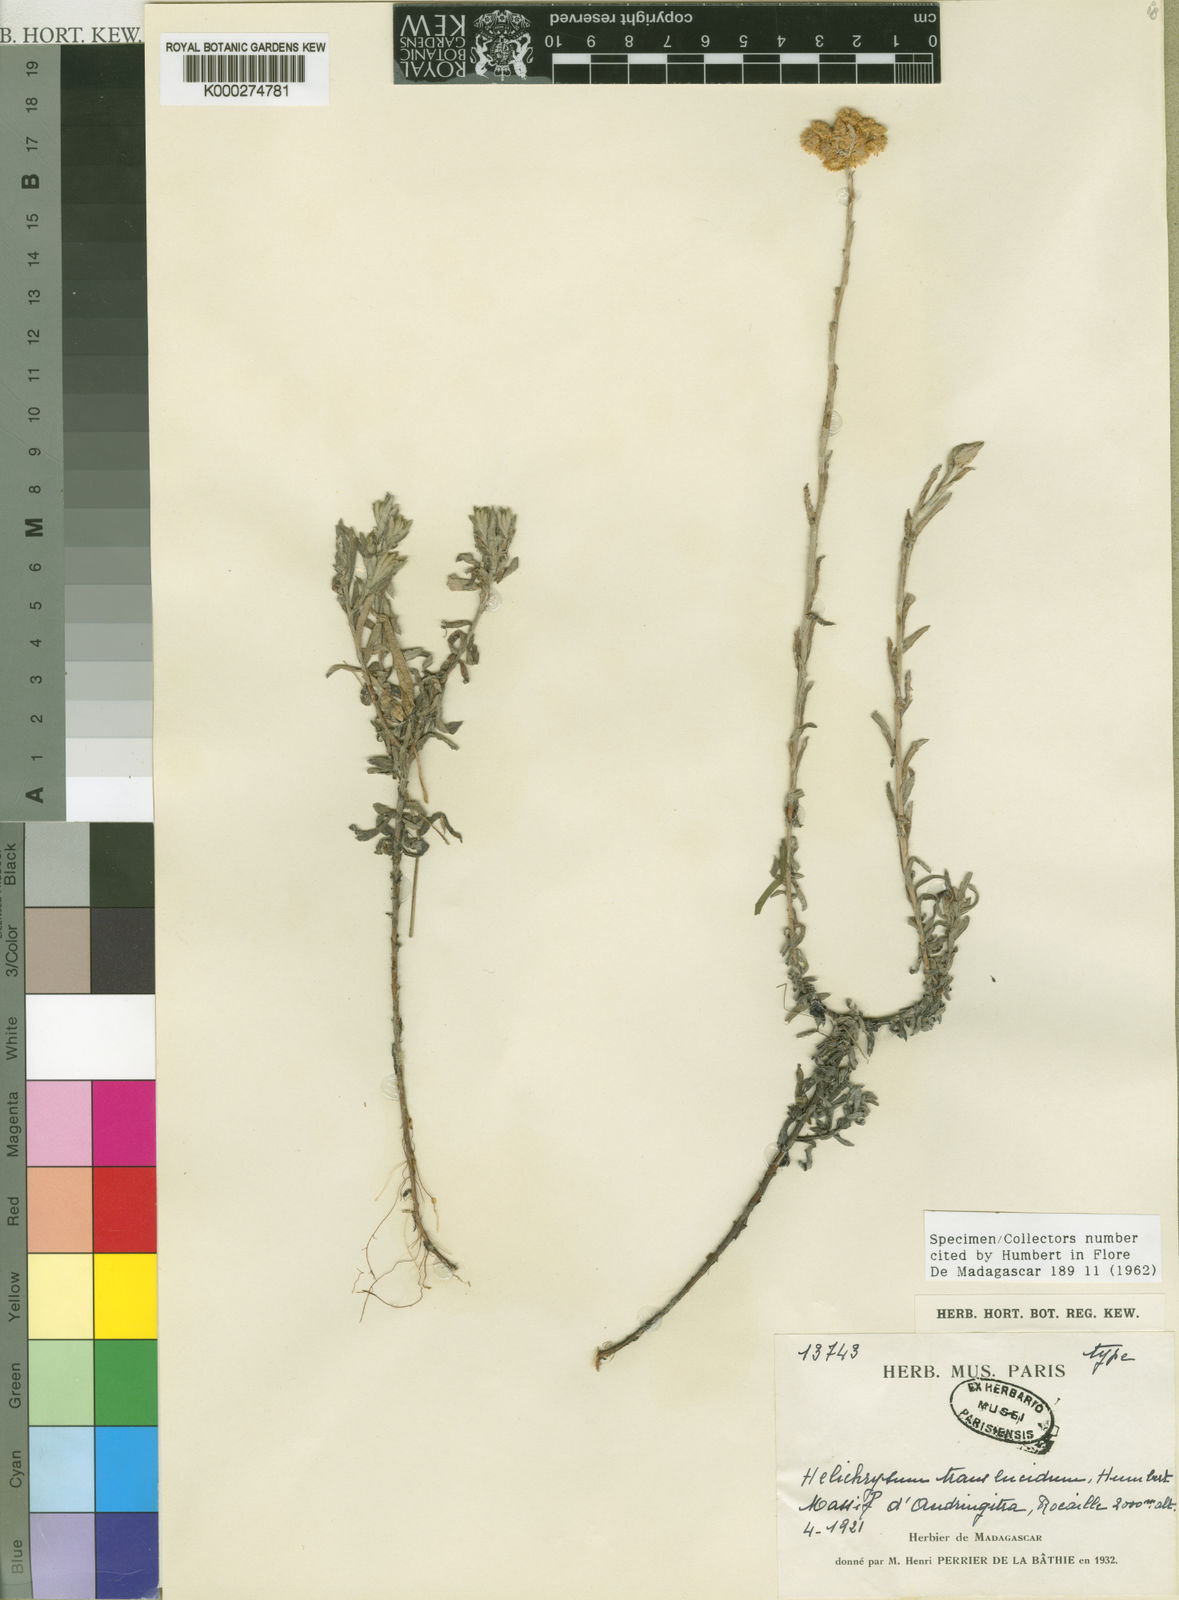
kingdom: Plantae
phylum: Tracheophyta
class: Magnoliopsida
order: Asterales
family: Asteraceae
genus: Helichrysum
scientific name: Helichrysum translucidum
